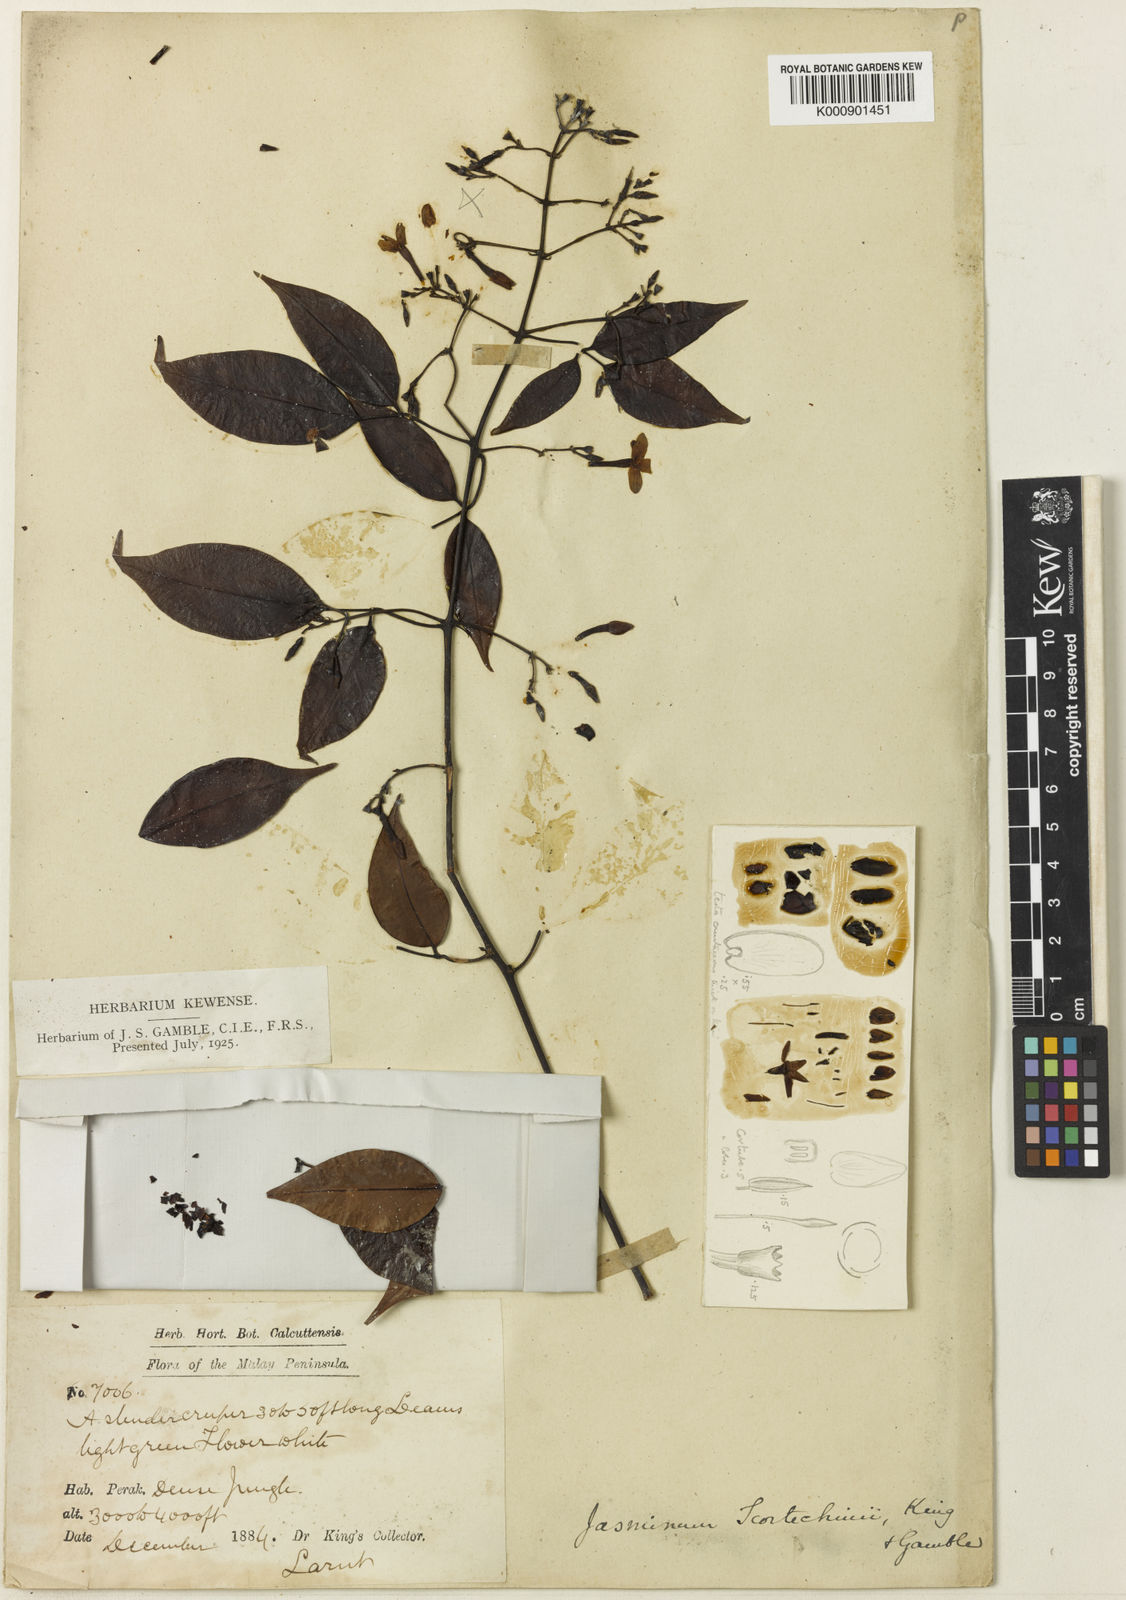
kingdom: Plantae
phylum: Tracheophyta
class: Magnoliopsida
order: Lamiales
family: Oleaceae
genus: Jasminum
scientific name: Jasminum lanceolaria
